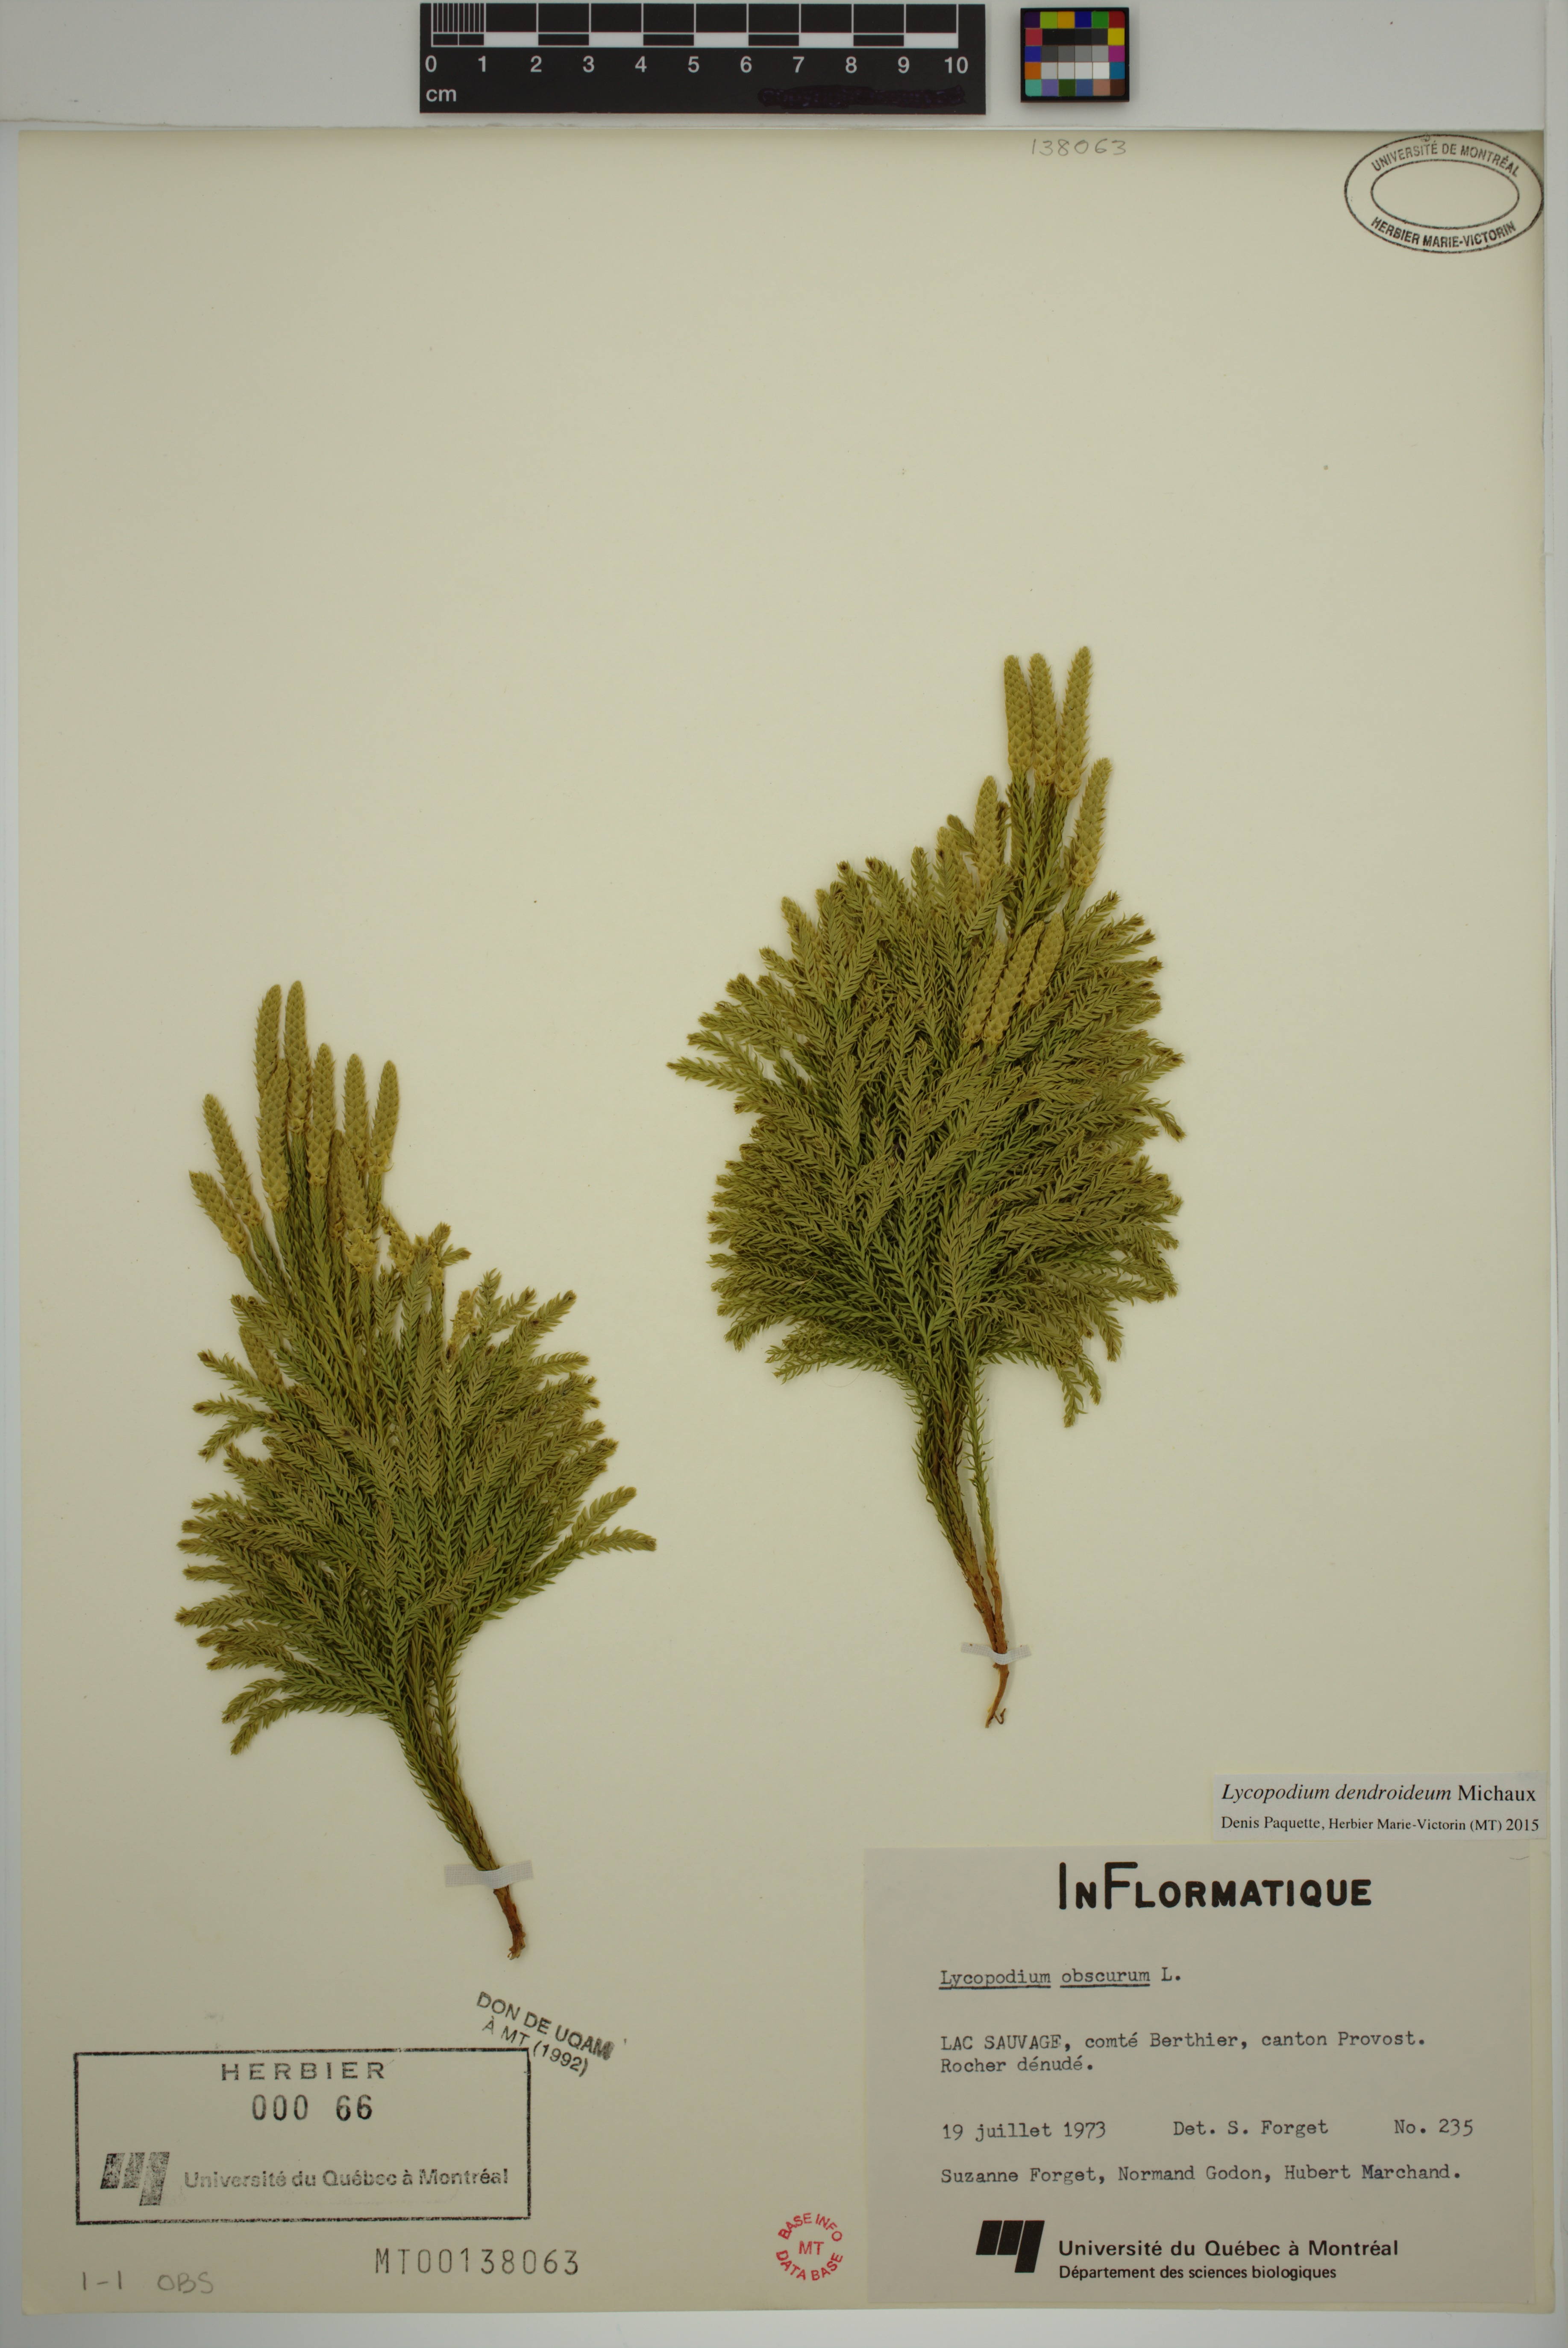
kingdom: Plantae
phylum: Tracheophyta
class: Lycopodiopsida
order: Lycopodiales
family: Lycopodiaceae
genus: Dendrolycopodium
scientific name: Dendrolycopodium dendroideum
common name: Northern tree-clubmoss
